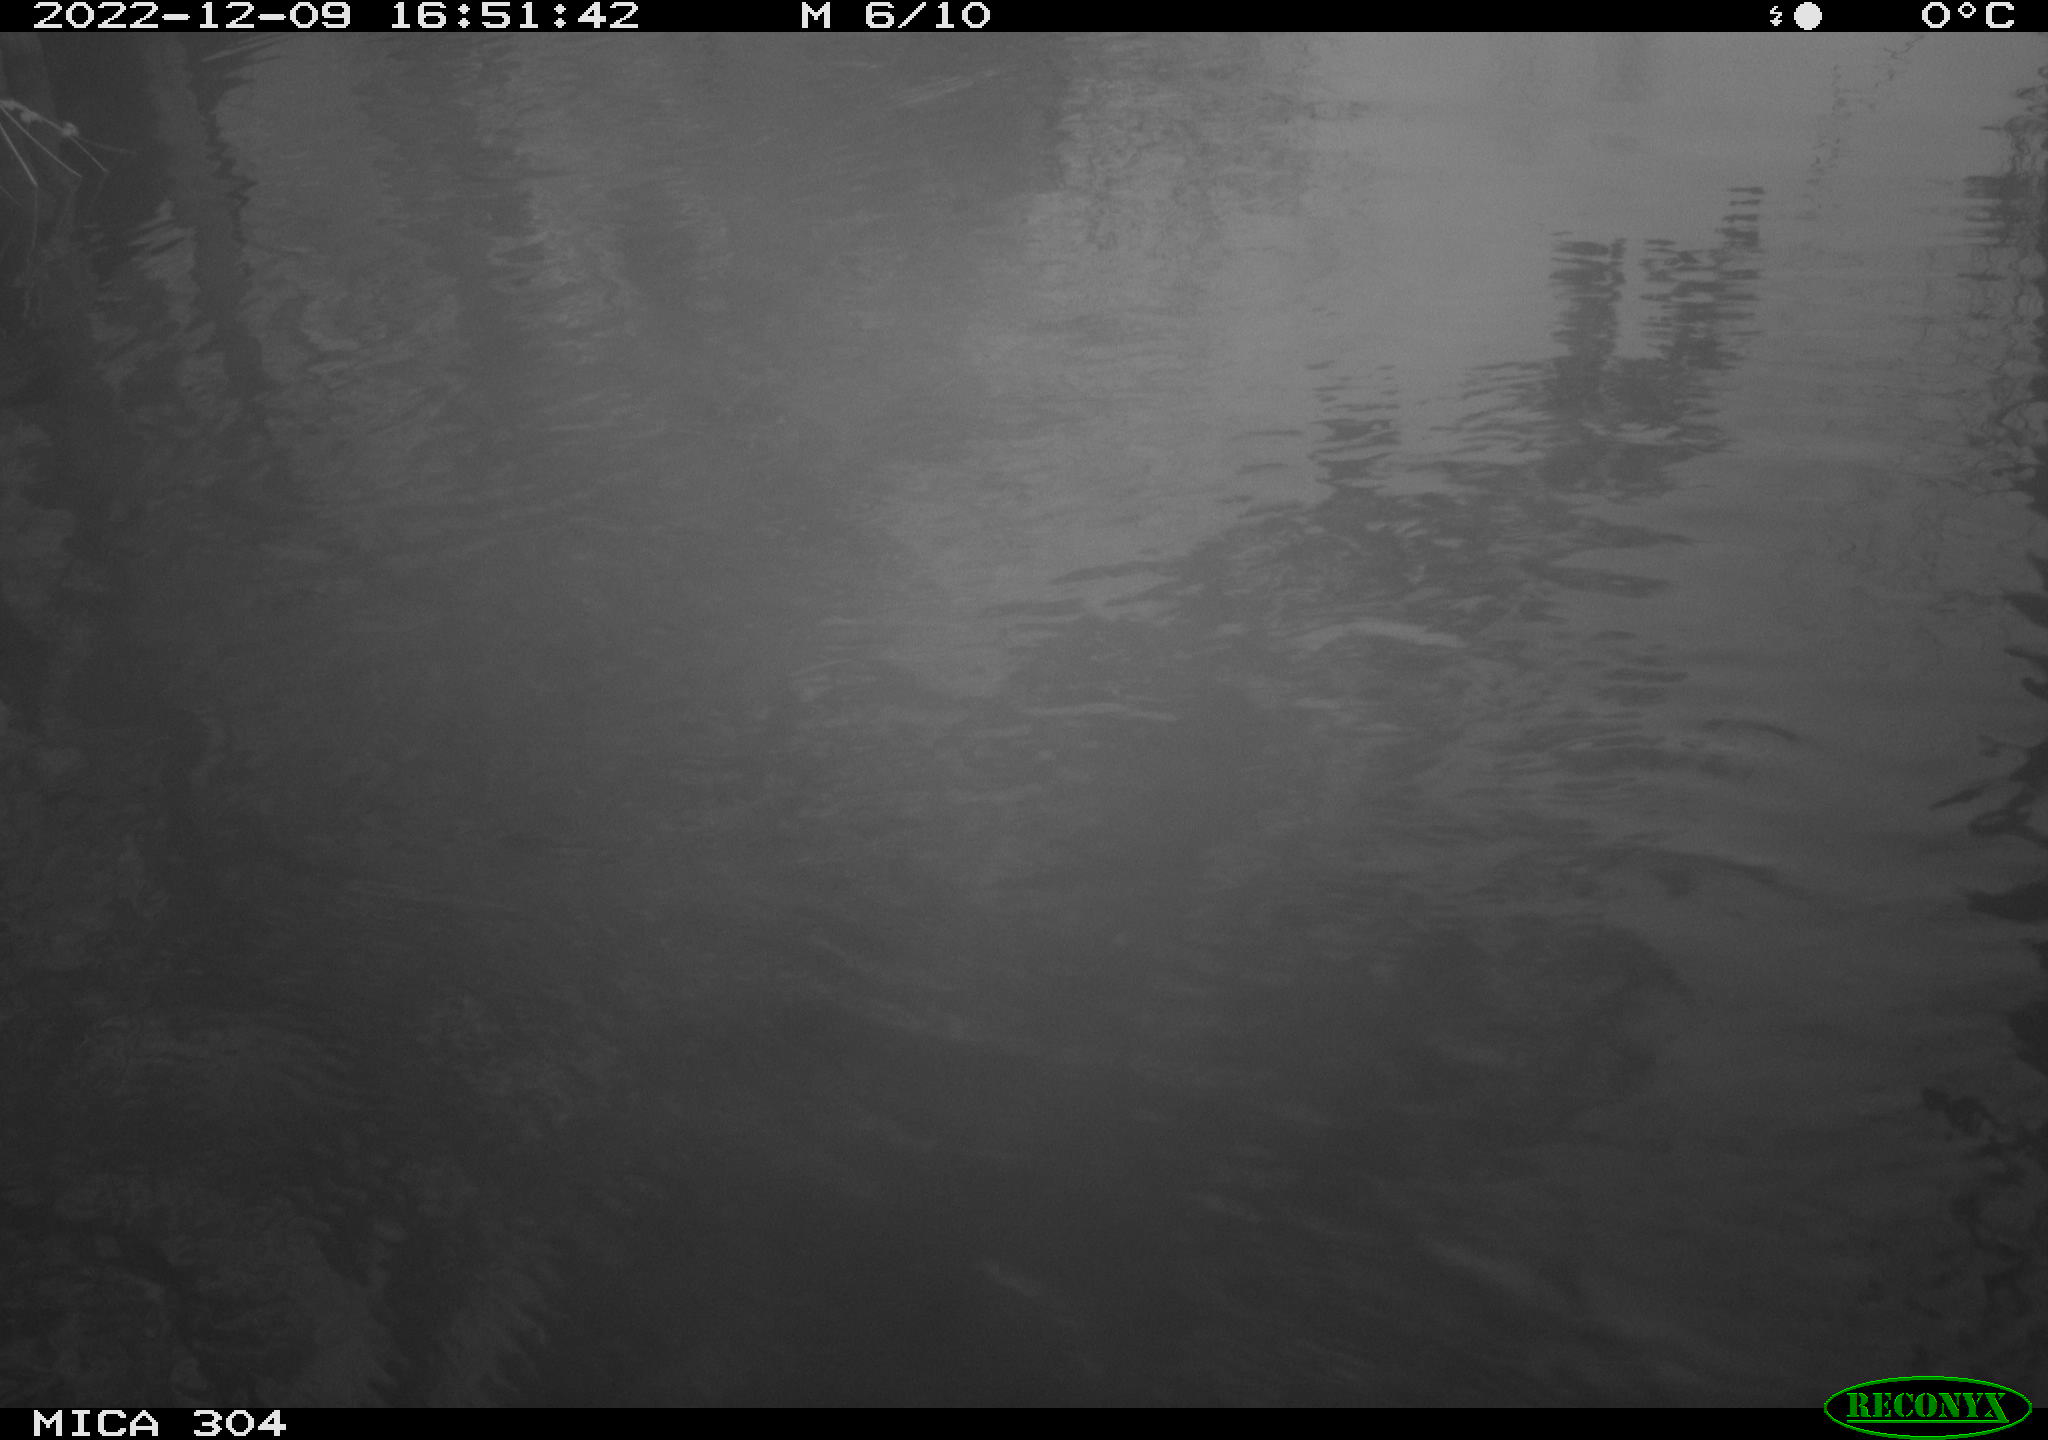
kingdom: Animalia
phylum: Chordata
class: Aves
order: Gruiformes
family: Rallidae
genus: Fulica
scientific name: Fulica atra
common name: Eurasian coot
